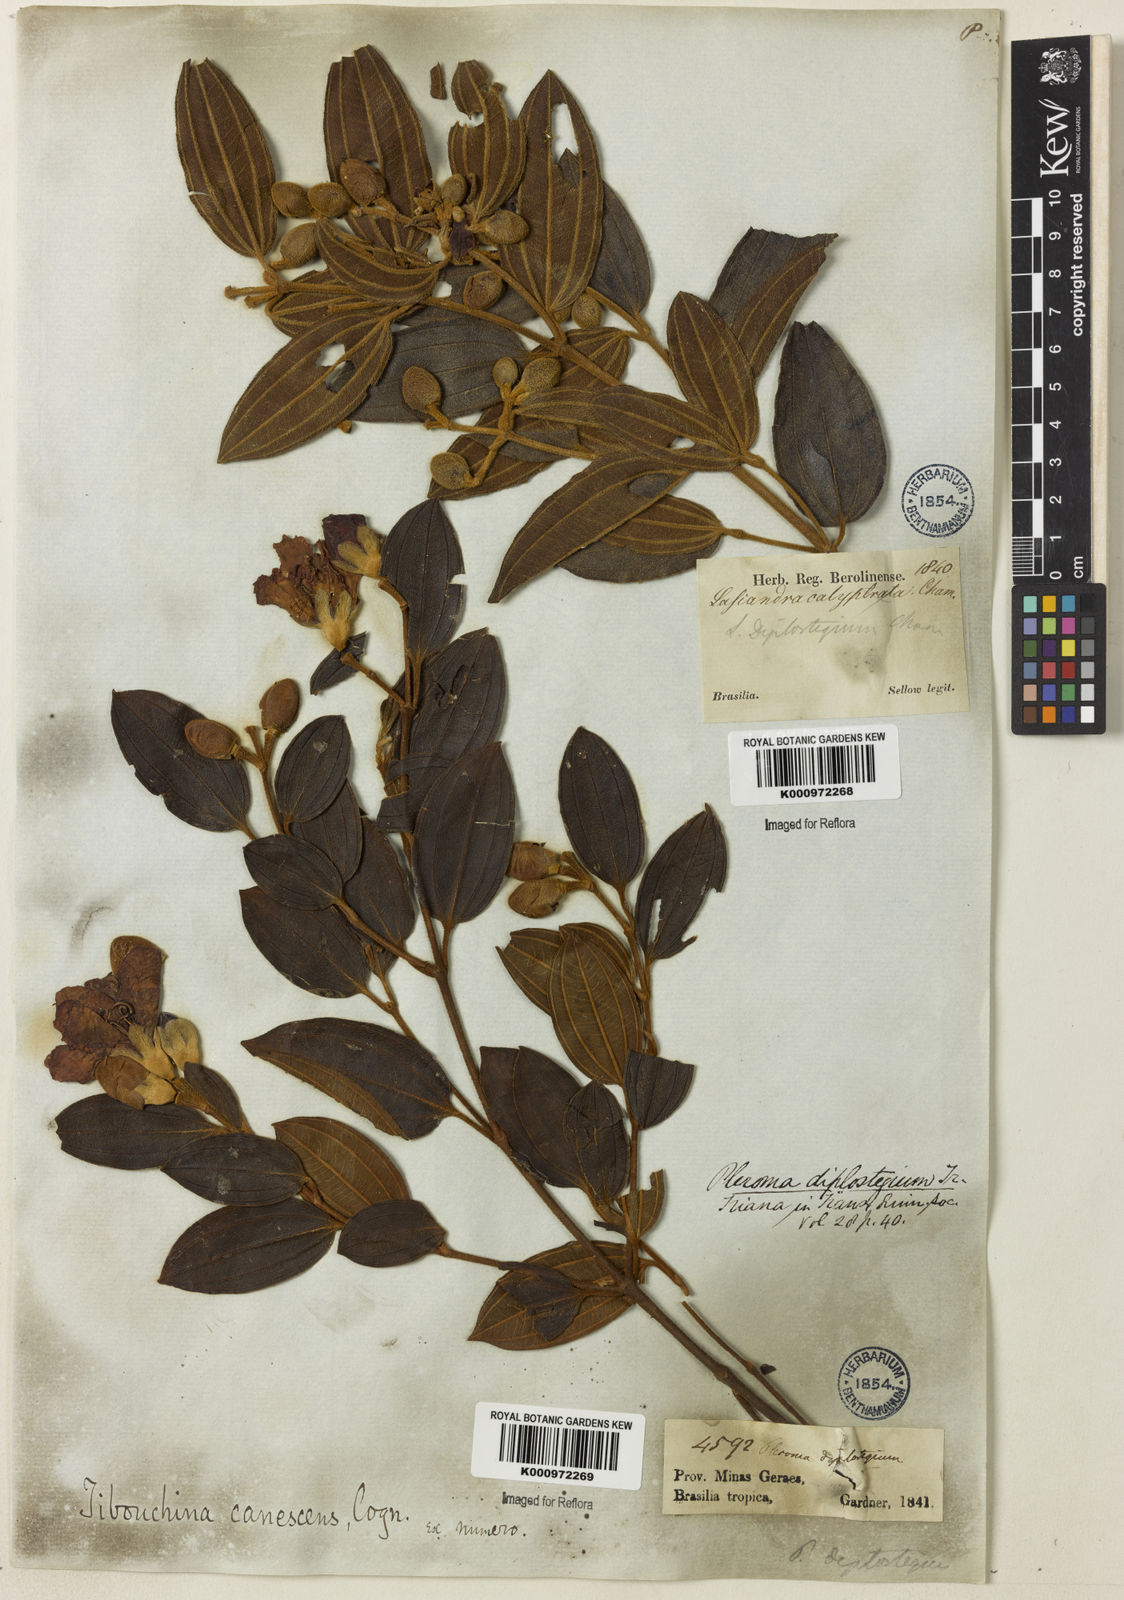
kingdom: Plantae
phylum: Tracheophyta
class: Magnoliopsida
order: Myrtales
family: Melastomataceae
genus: Pleroma
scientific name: Pleroma canescens
